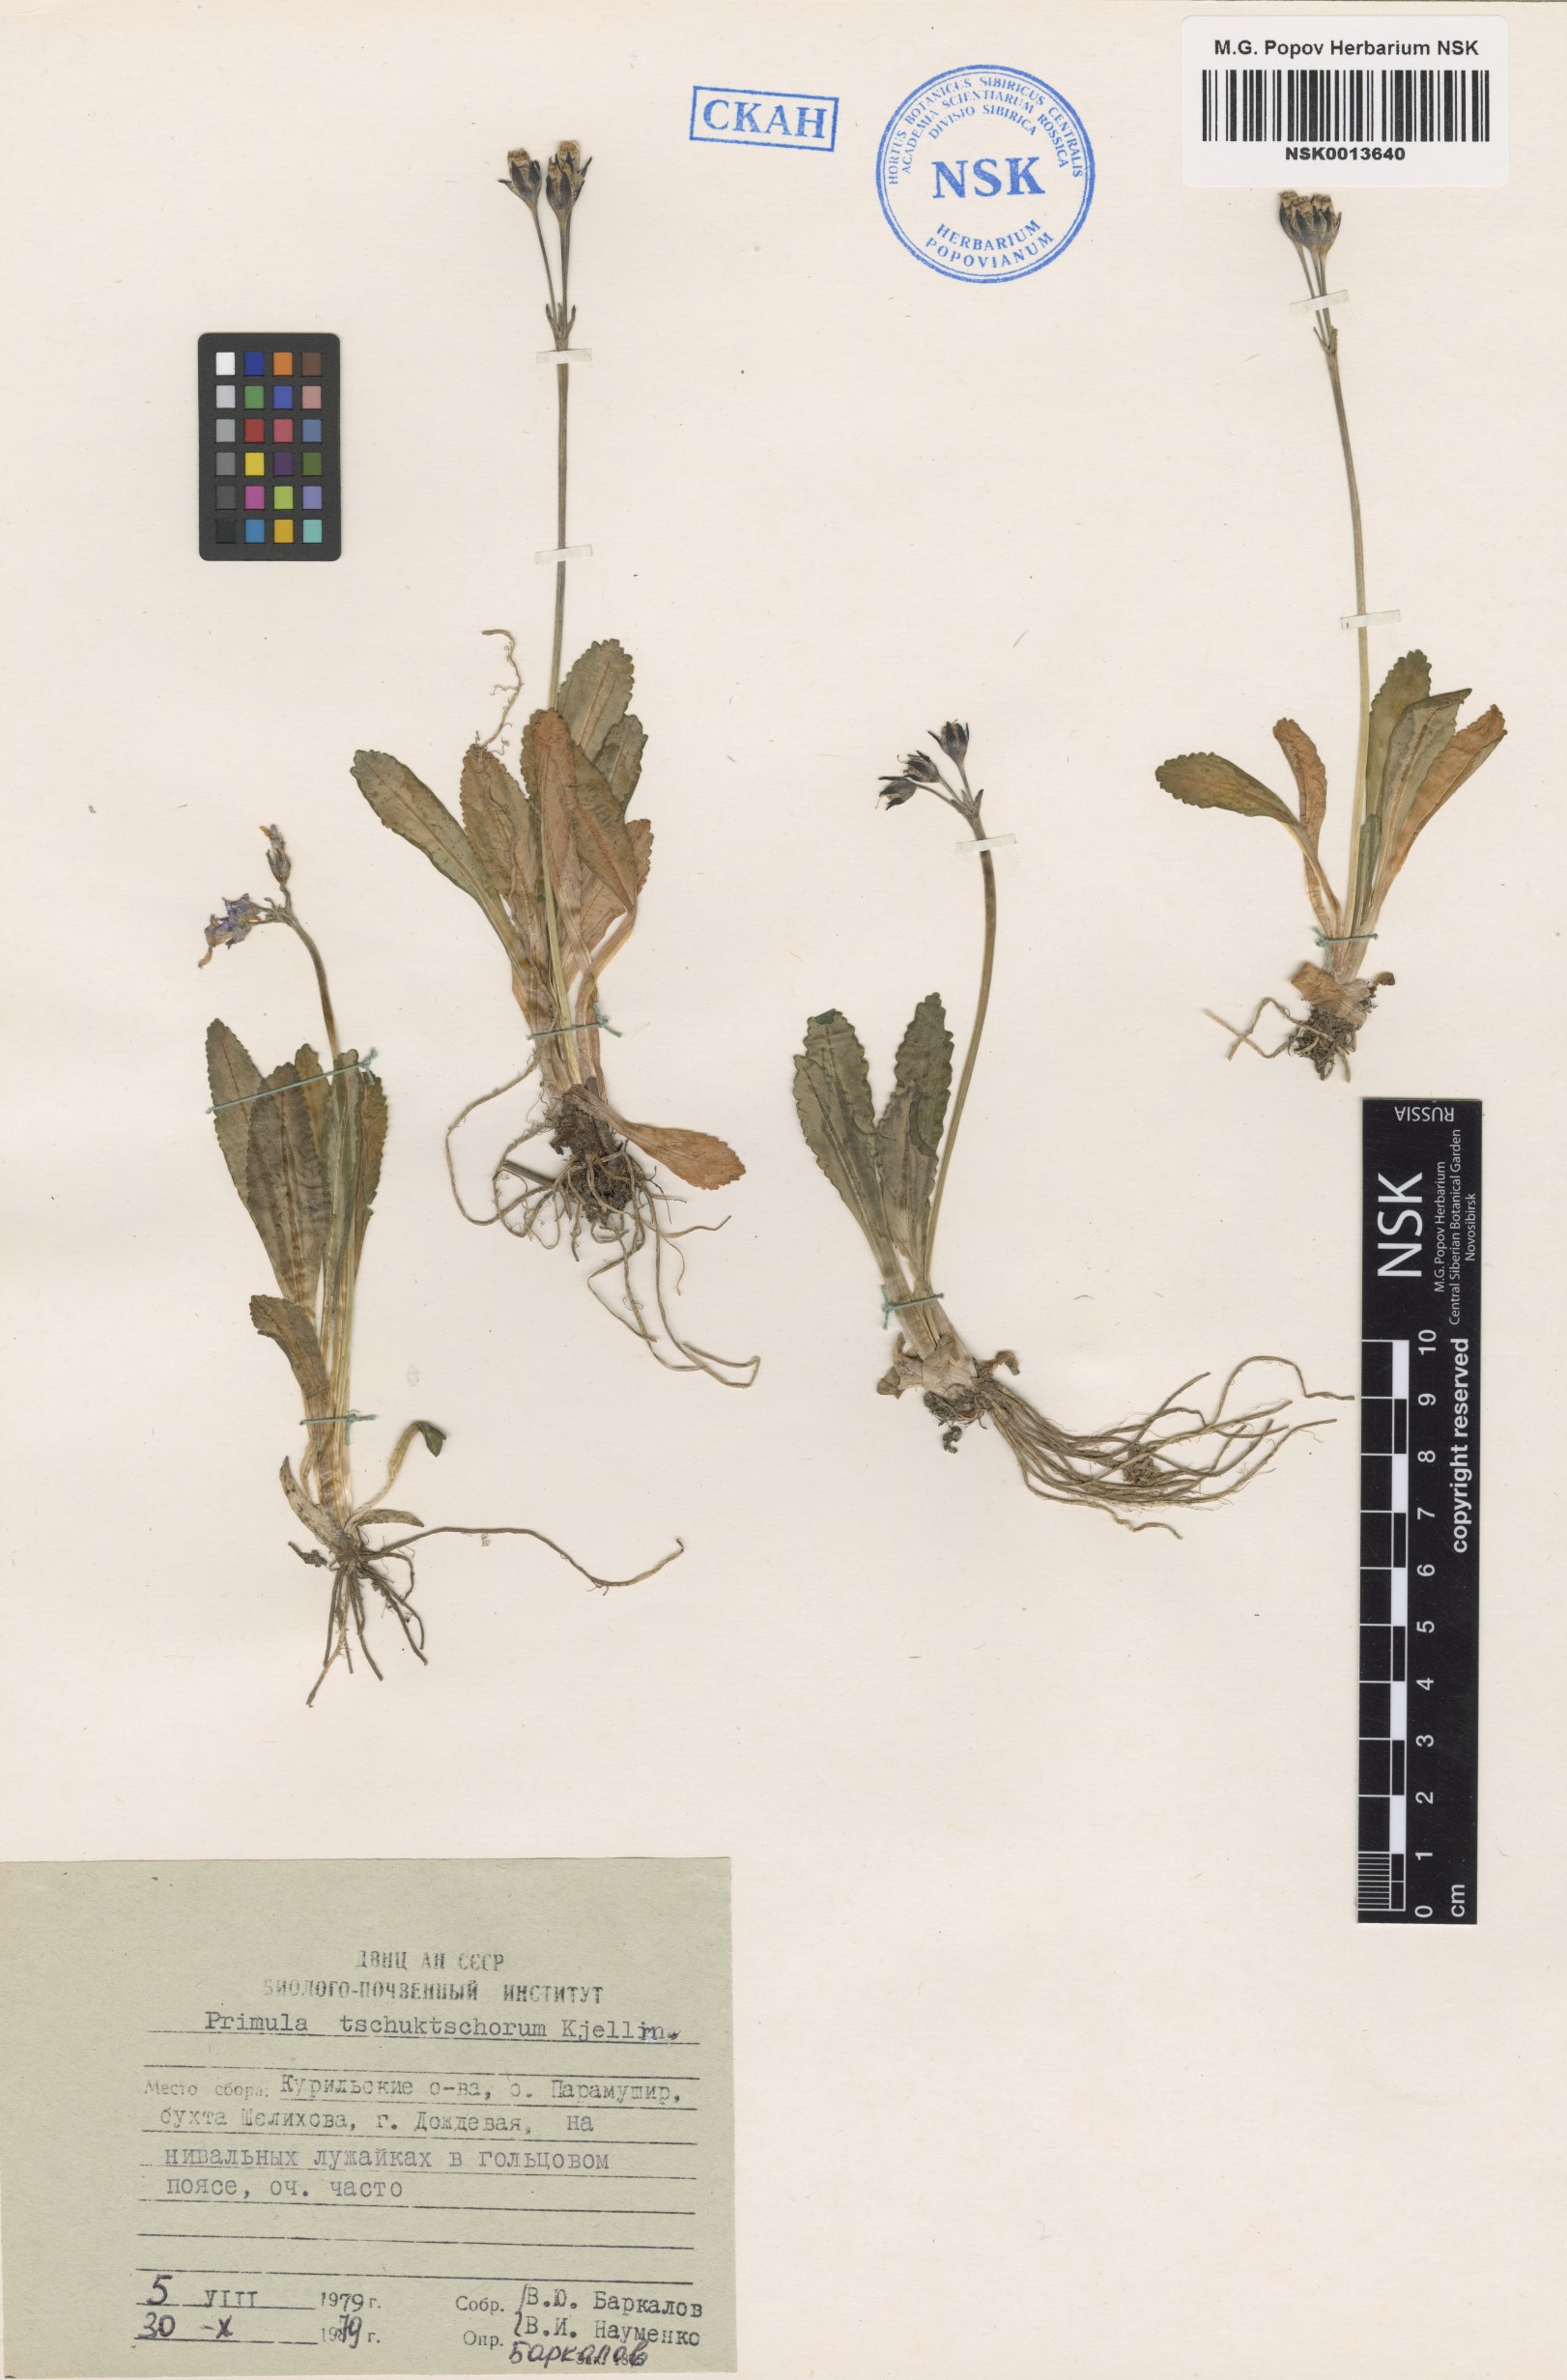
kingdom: Plantae
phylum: Tracheophyta
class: Magnoliopsida
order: Ericales
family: Primulaceae
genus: Primula
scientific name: Primula tschuktschorum
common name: Chukchi primrose
